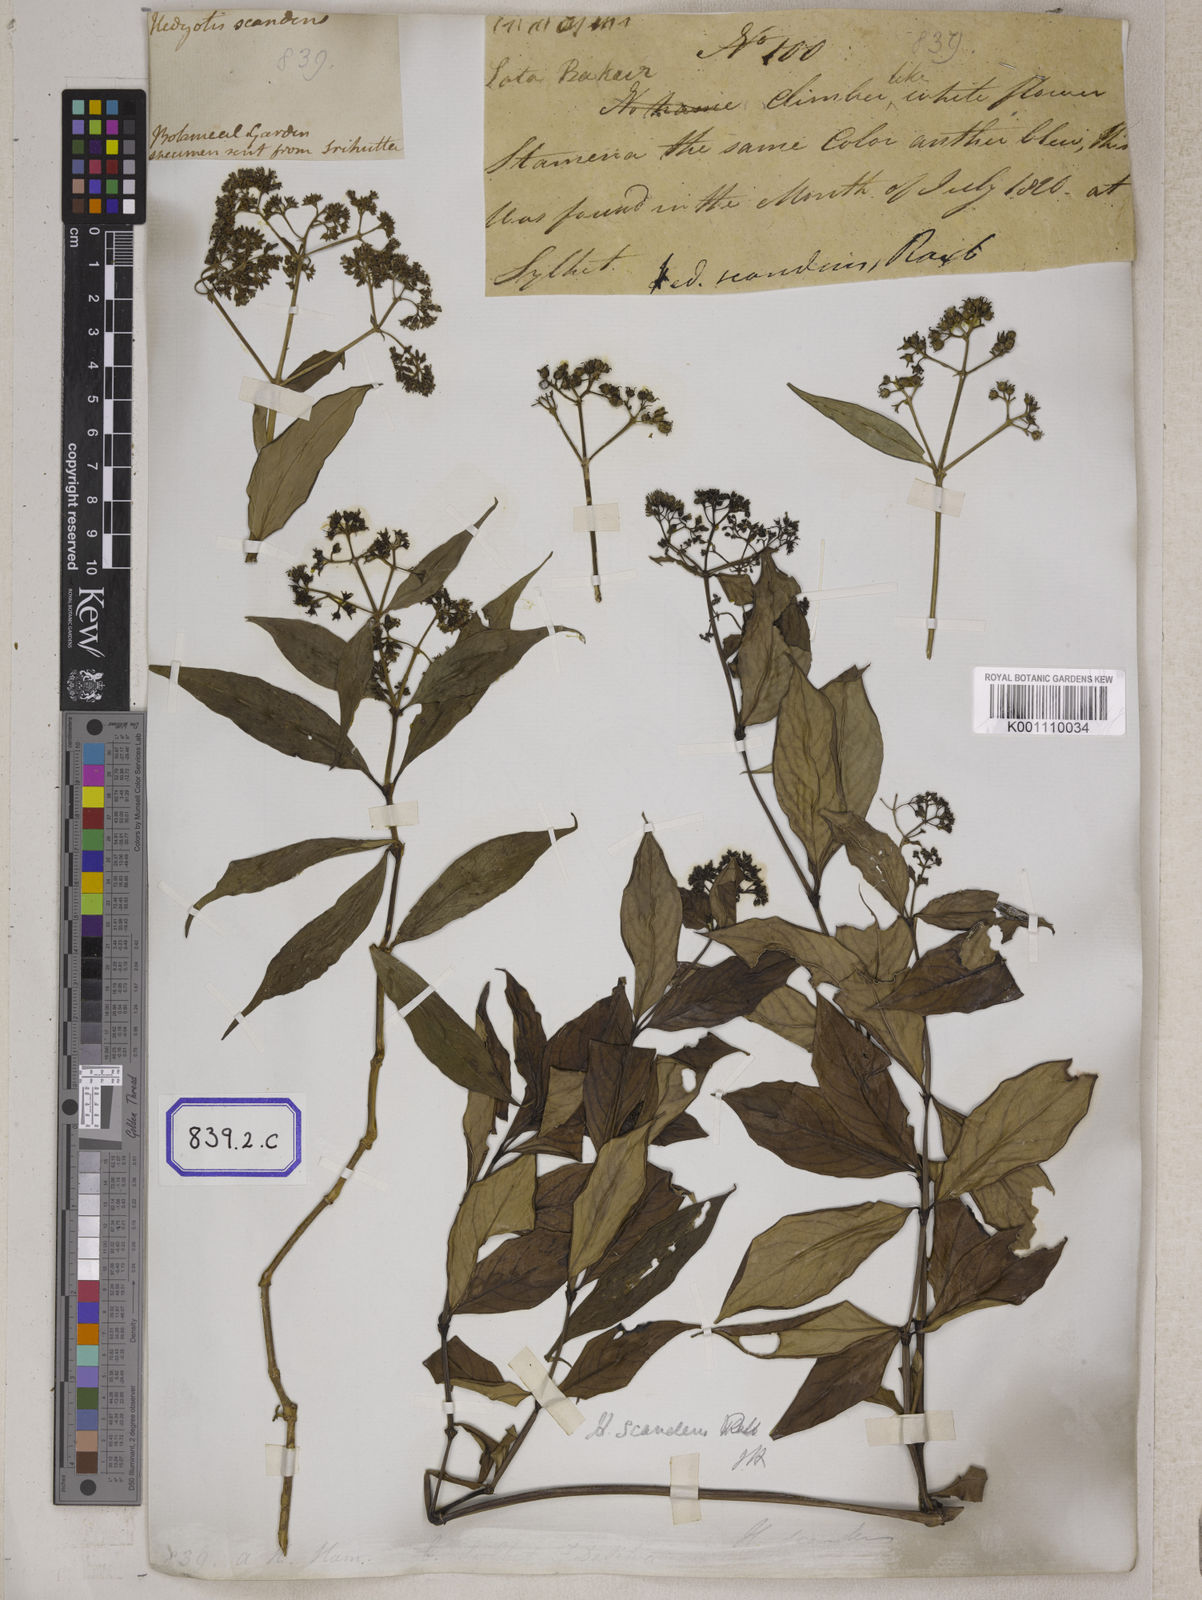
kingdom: Plantae
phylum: Tracheophyta
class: Magnoliopsida
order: Gentianales
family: Rubiaceae
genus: Dimetia
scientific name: Dimetia scandens
